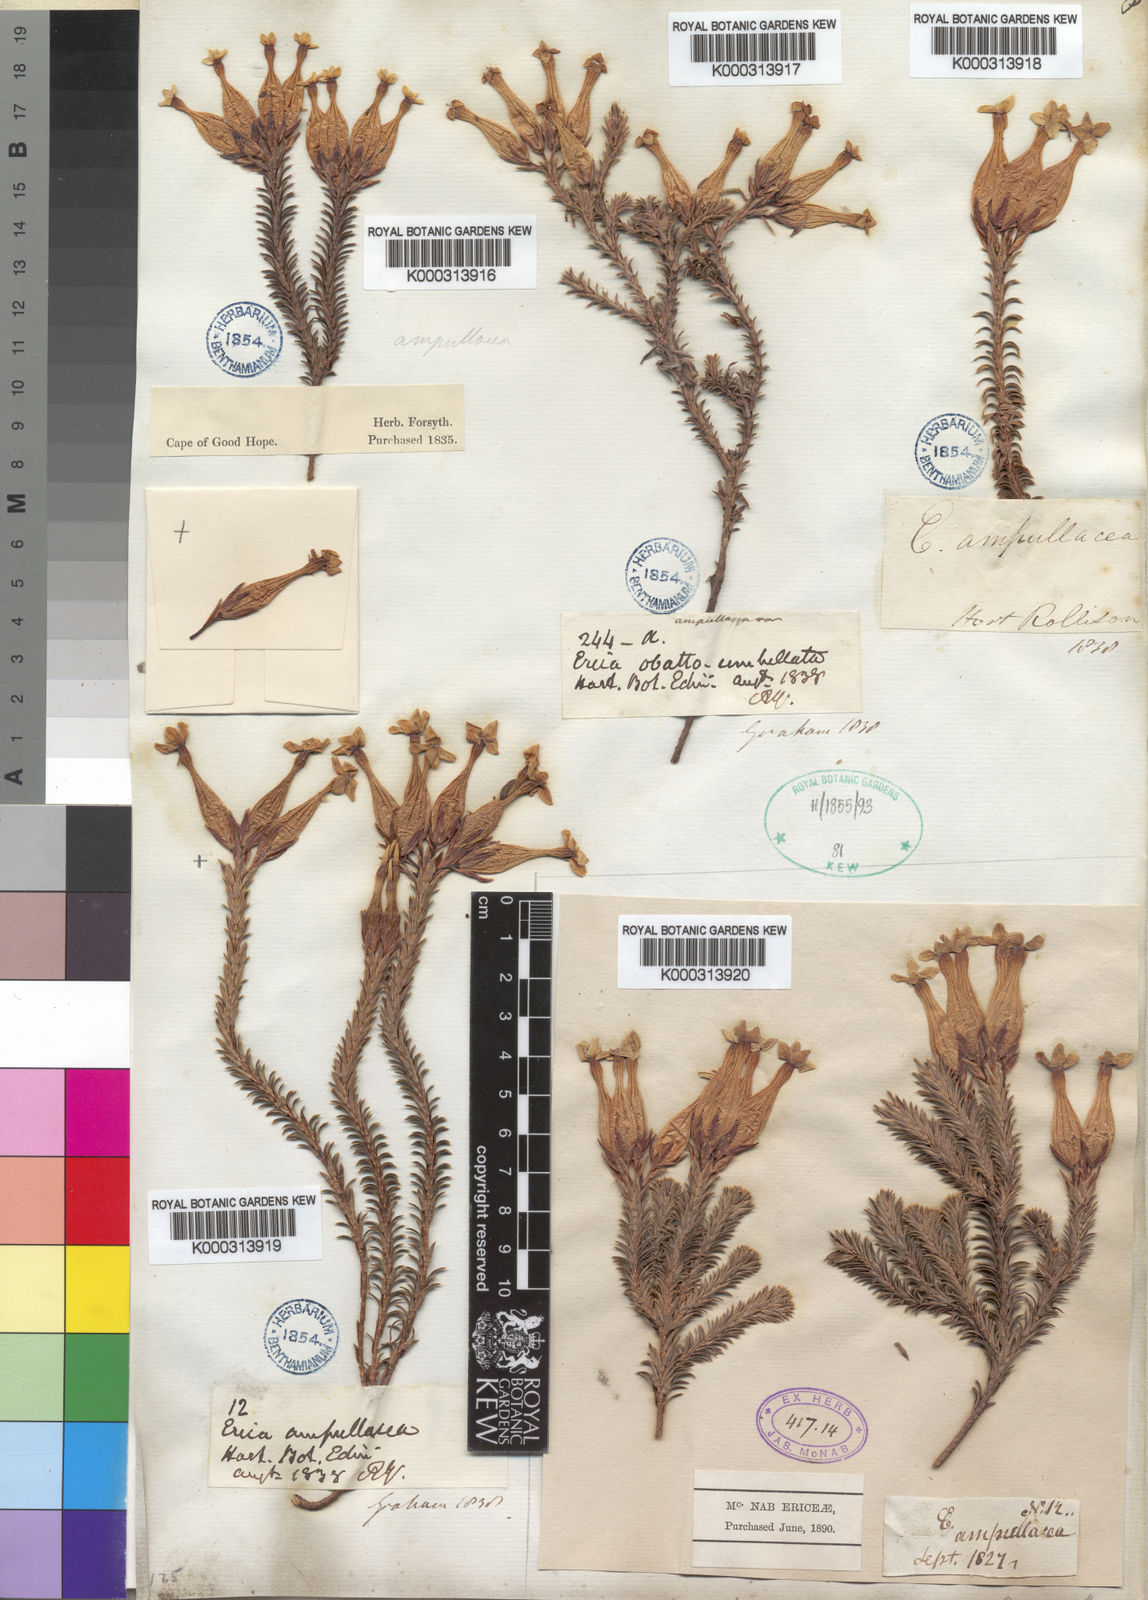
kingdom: Plantae
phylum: Tracheophyta
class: Magnoliopsida
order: Ericales
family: Ericaceae
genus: Erica
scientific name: Erica ampullacea
